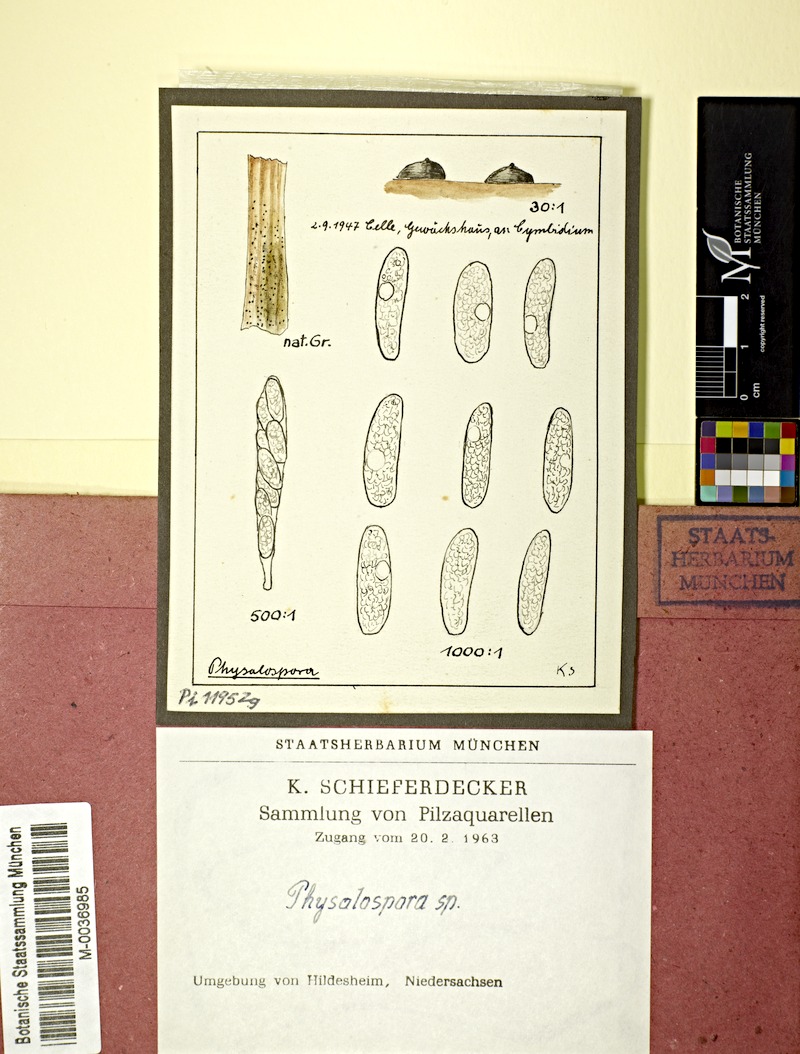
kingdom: Fungi
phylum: Ascomycota
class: Sordariomycetes
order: Xylariales
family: Hyponectriaceae
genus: Physalospora
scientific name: Physalospora
